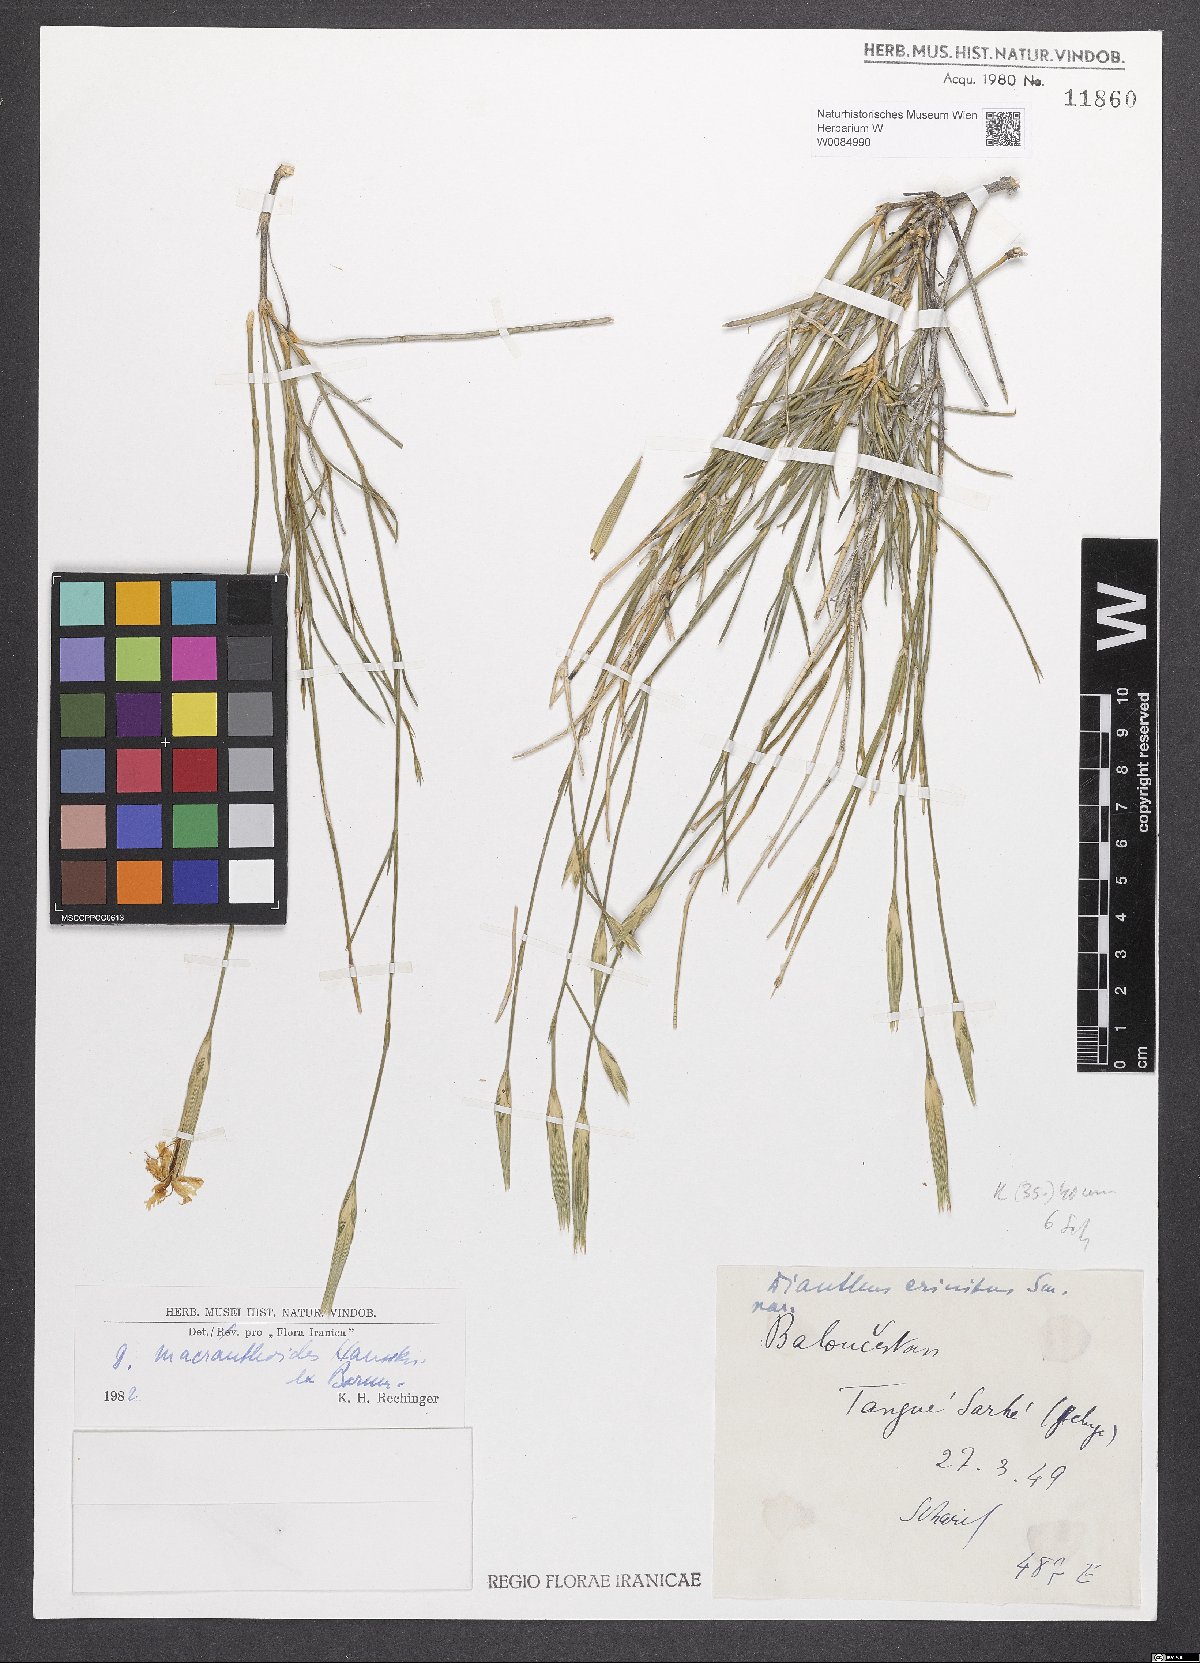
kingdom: Plantae
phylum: Tracheophyta
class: Magnoliopsida
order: Caryophyllales
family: Caryophyllaceae
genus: Dianthus
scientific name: Dianthus macranthoides
